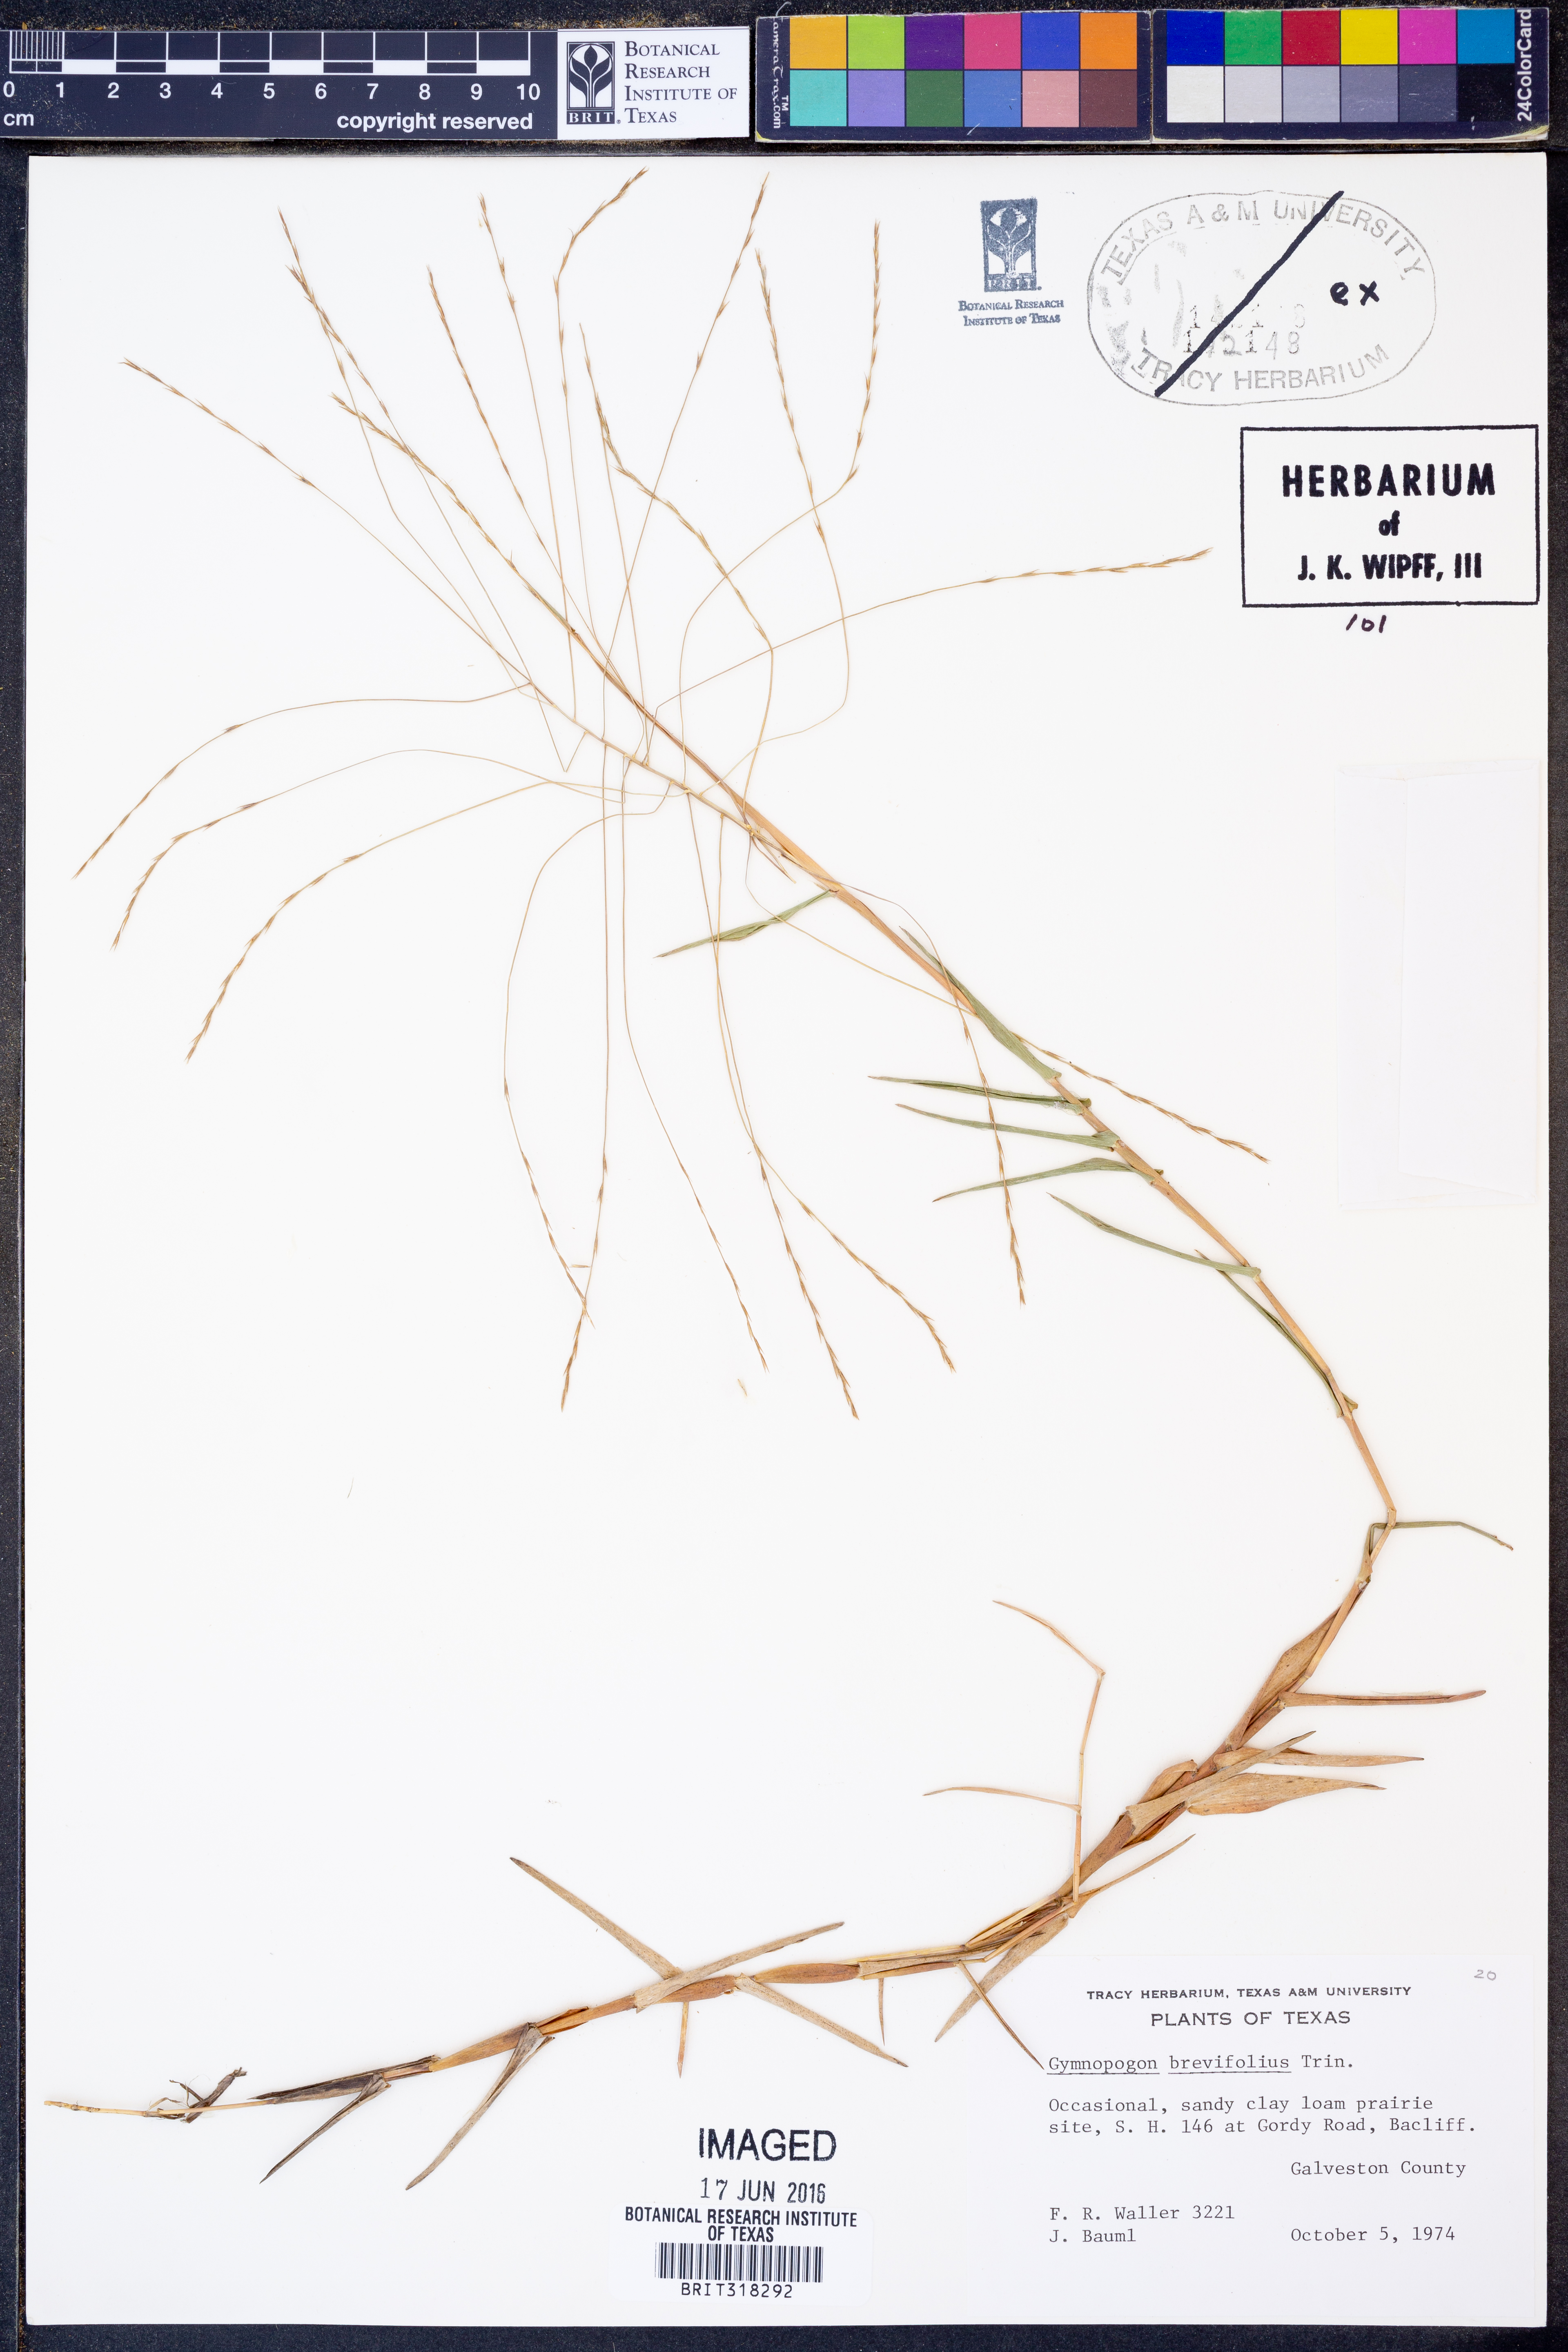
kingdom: Plantae
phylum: Tracheophyta
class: Liliopsida
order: Poales
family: Poaceae
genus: Gymnopogon
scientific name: Gymnopogon brevifolius
